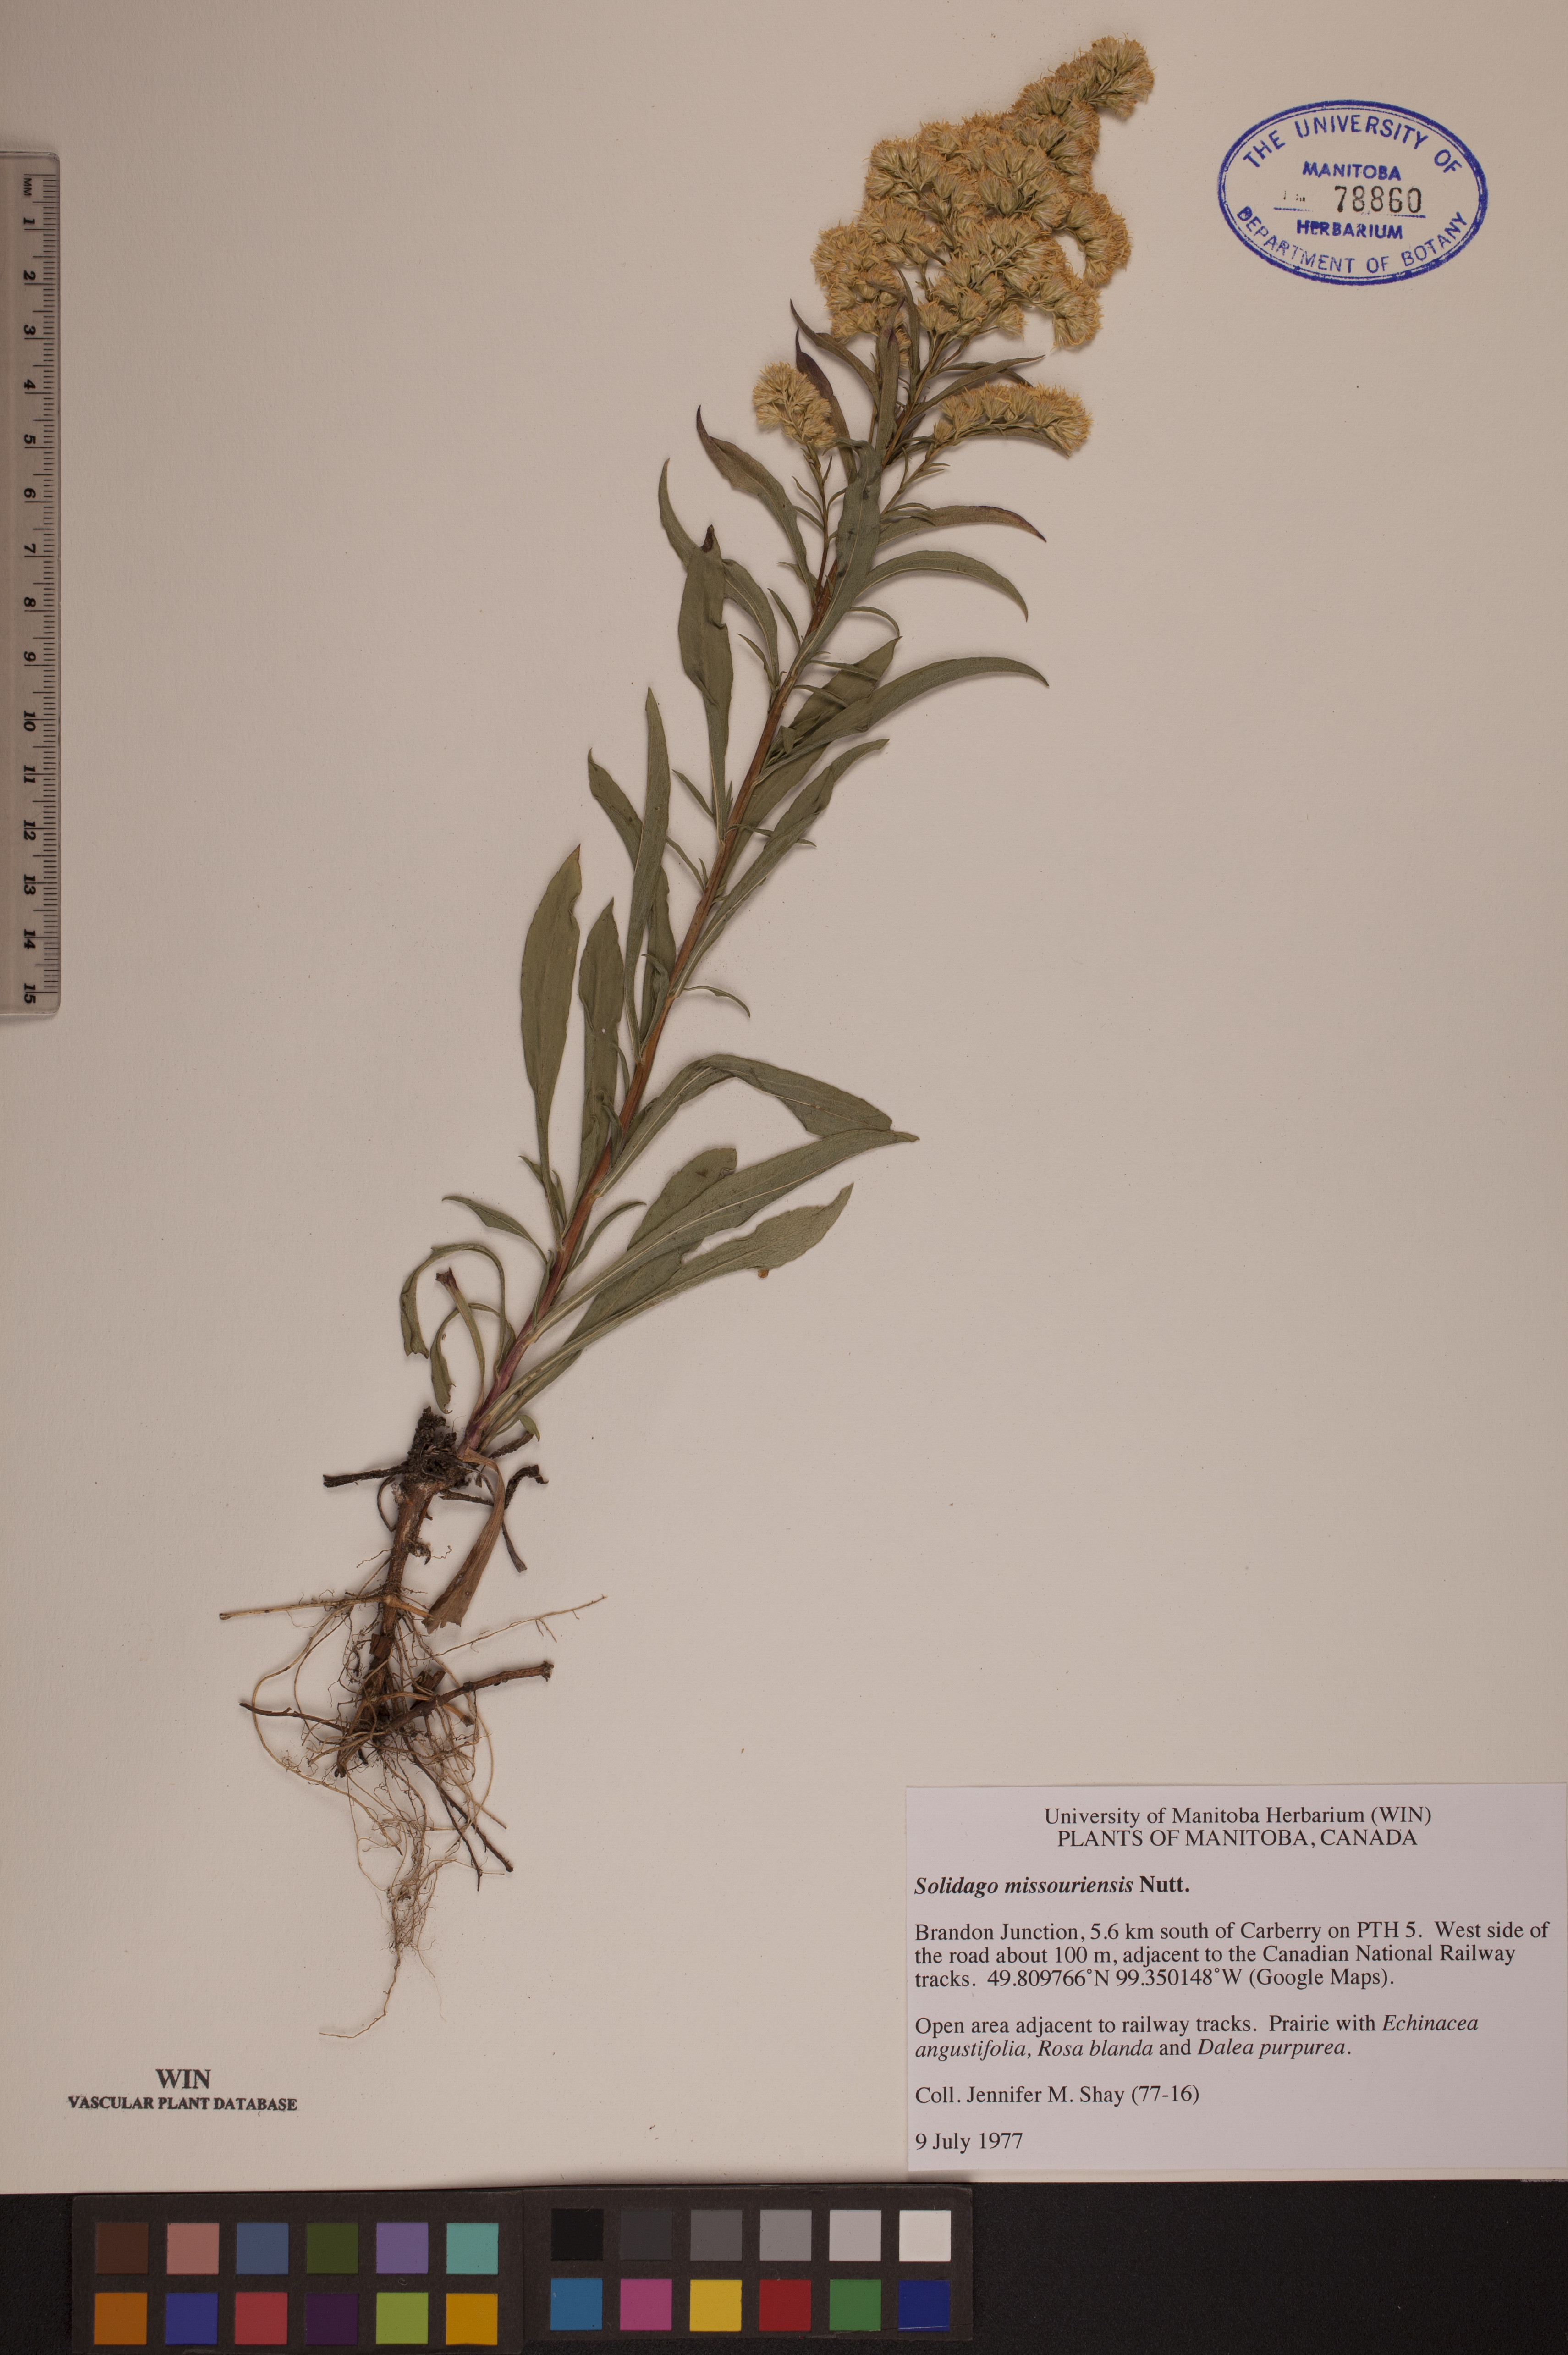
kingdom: Plantae
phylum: Tracheophyta
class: Magnoliopsida
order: Asterales
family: Asteraceae
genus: Solidago
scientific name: Solidago missouriensis
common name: Prairie goldenrod
